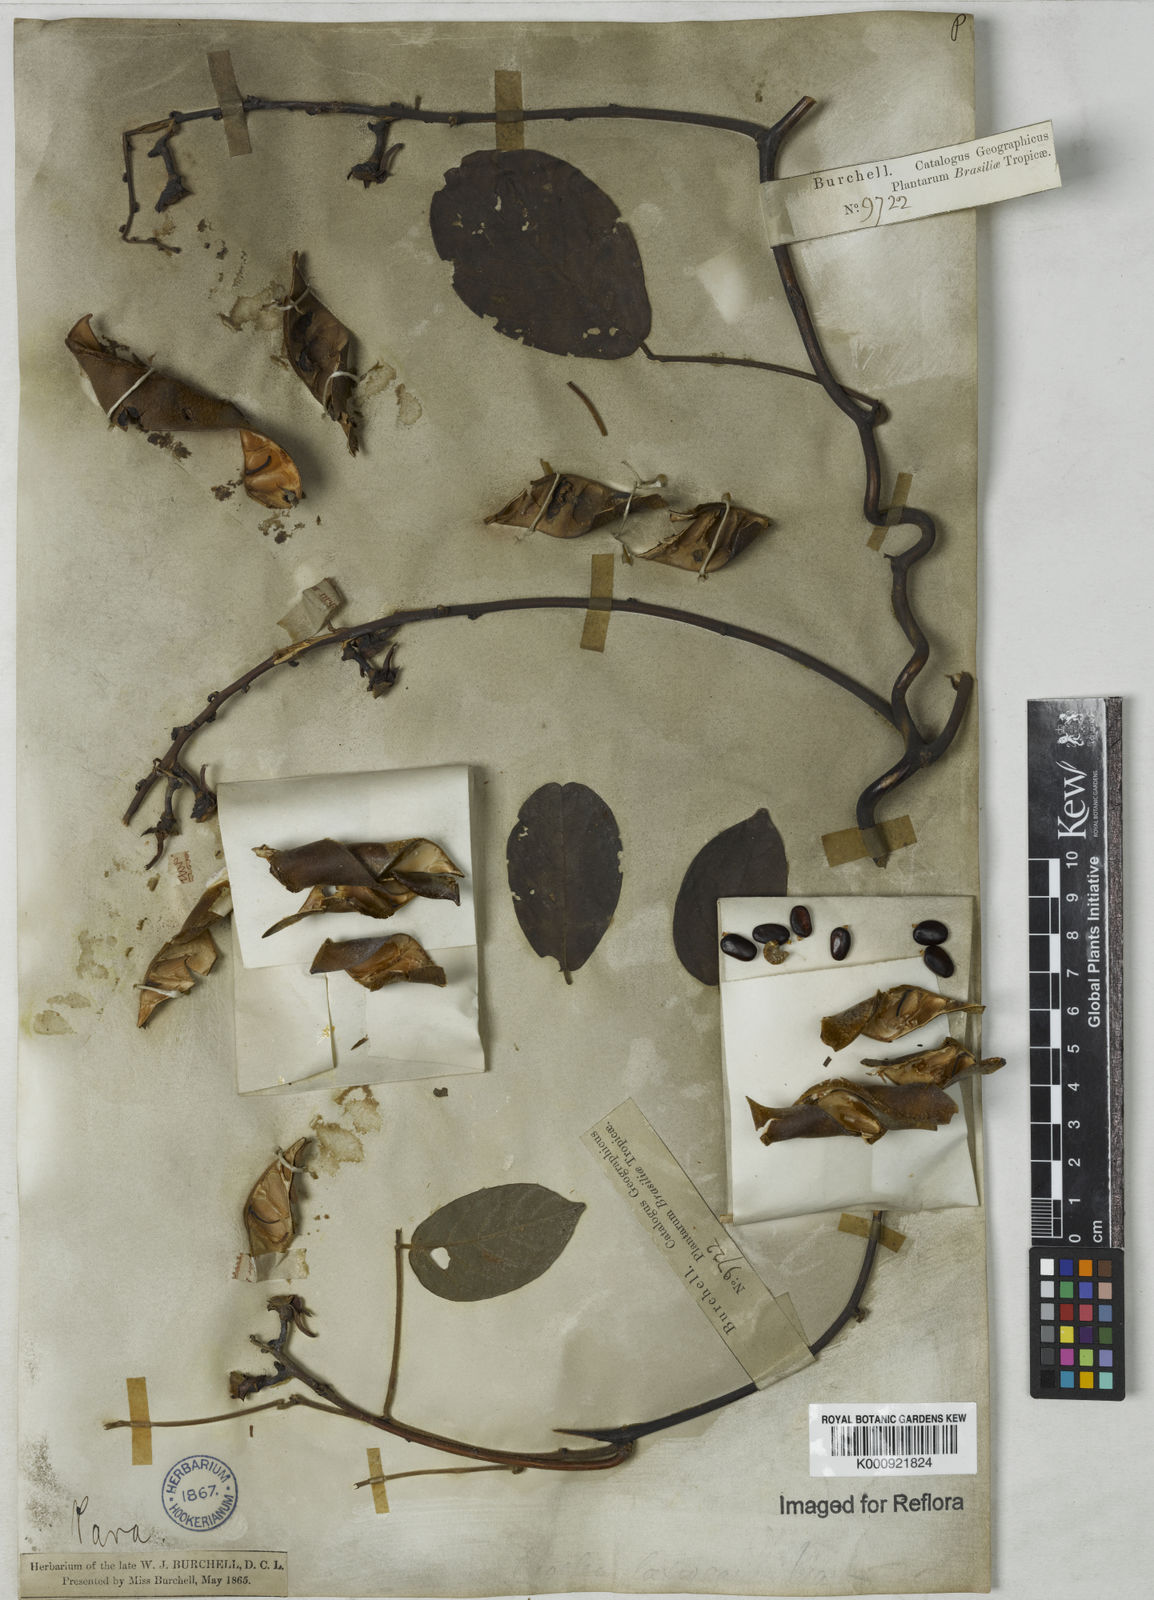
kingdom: Plantae
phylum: Tracheophyta
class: Magnoliopsida
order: Fabales
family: Fabaceae
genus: Dioclea
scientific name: Dioclea virgata
